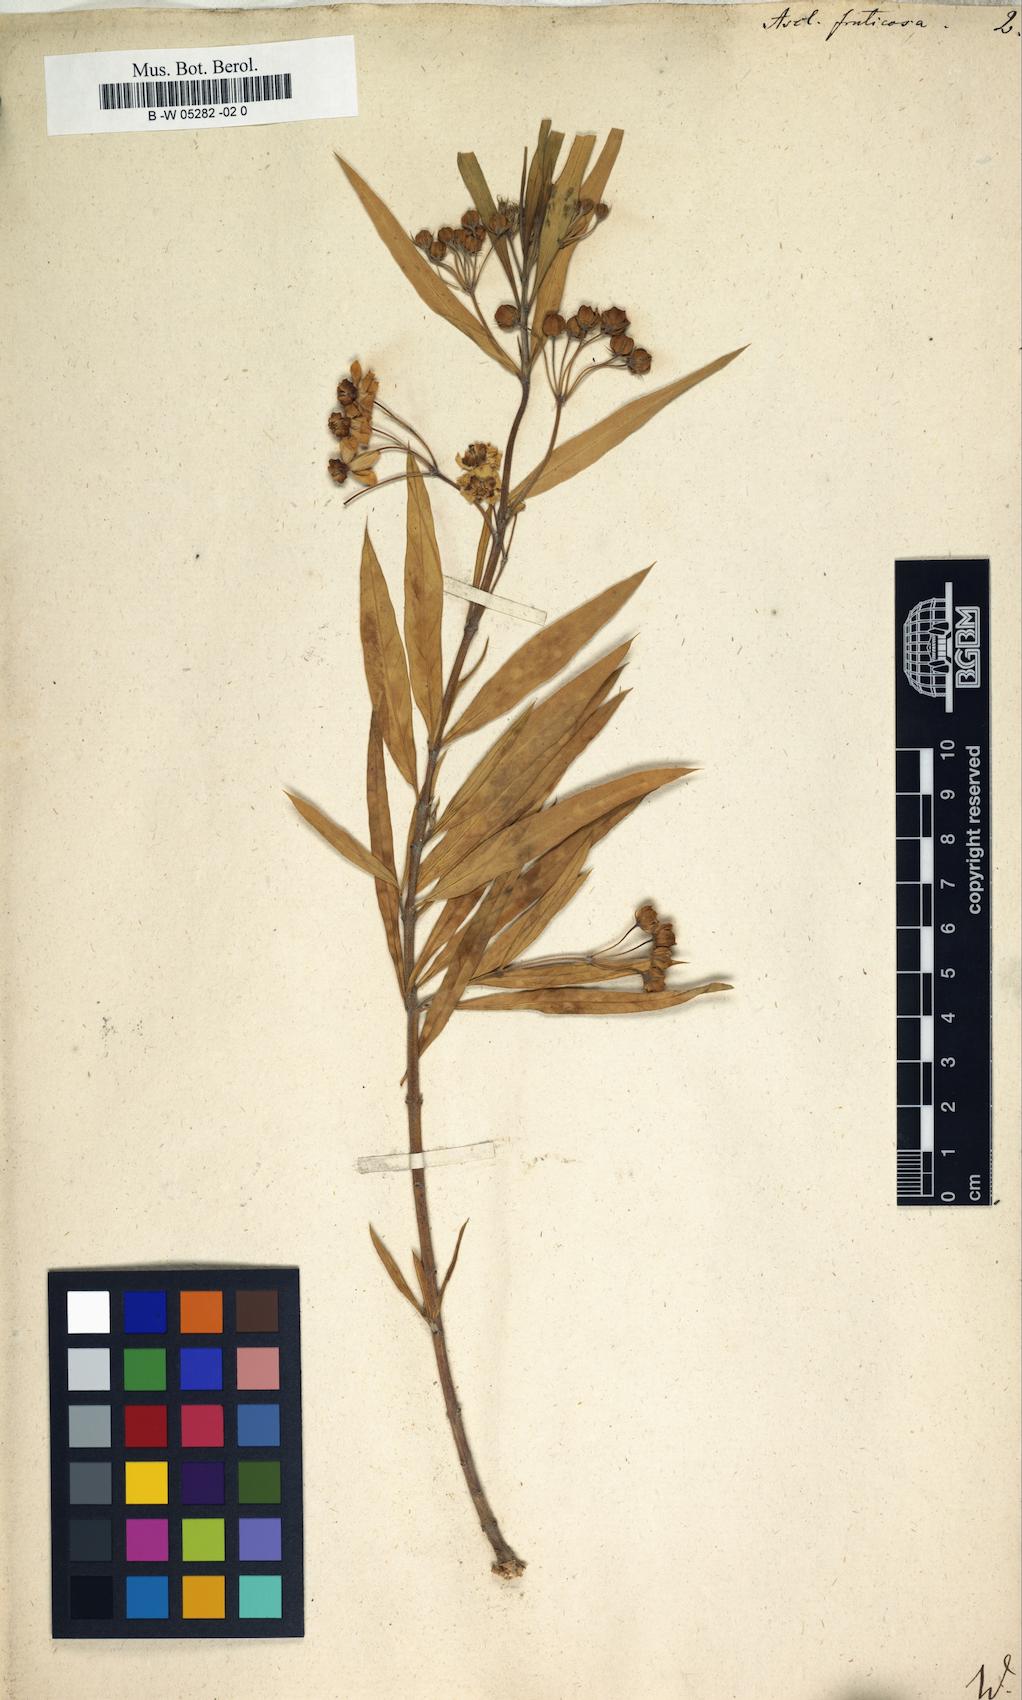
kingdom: Plantae
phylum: Tracheophyta
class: Magnoliopsida
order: Gentianales
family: Apocynaceae
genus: Gomphocarpus
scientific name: Gomphocarpus fruticosus
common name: Milkweed
